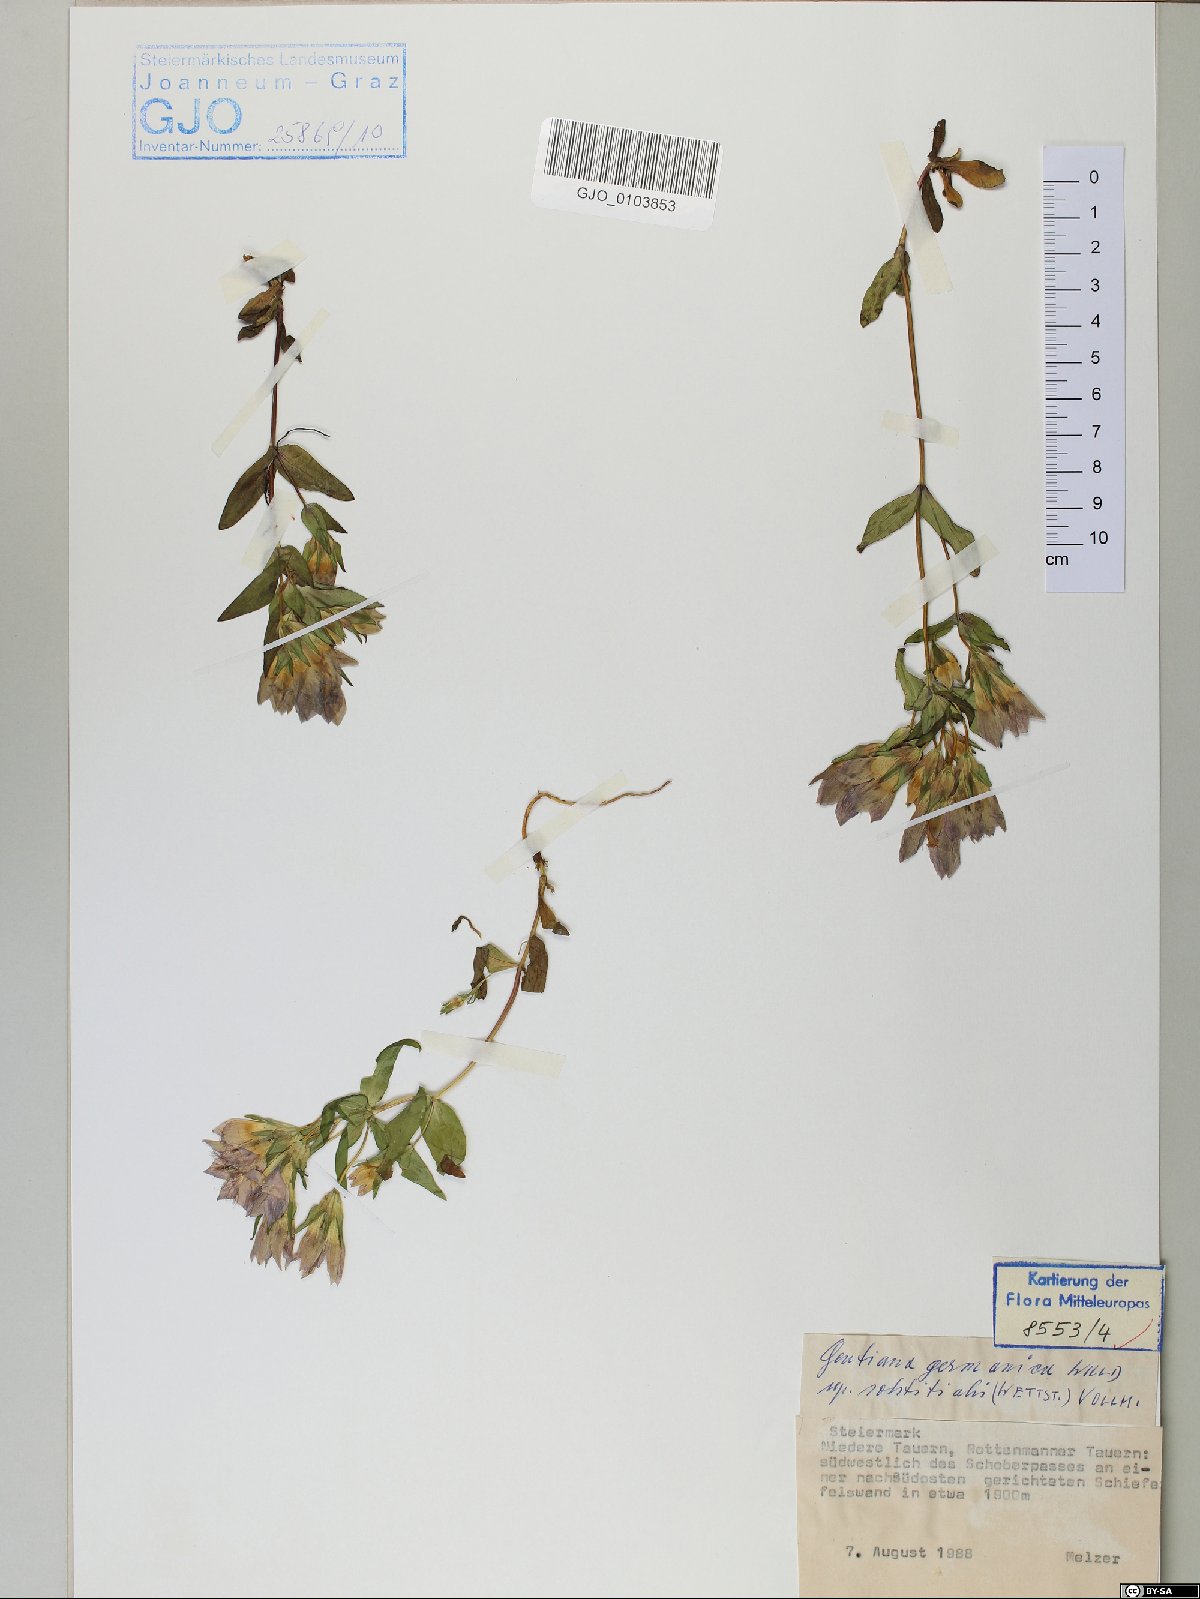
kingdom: Plantae
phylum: Tracheophyta
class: Magnoliopsida
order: Gentianales
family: Gentianaceae
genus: Gentianella
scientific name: Gentianella germanica
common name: Chiltern-gentian
